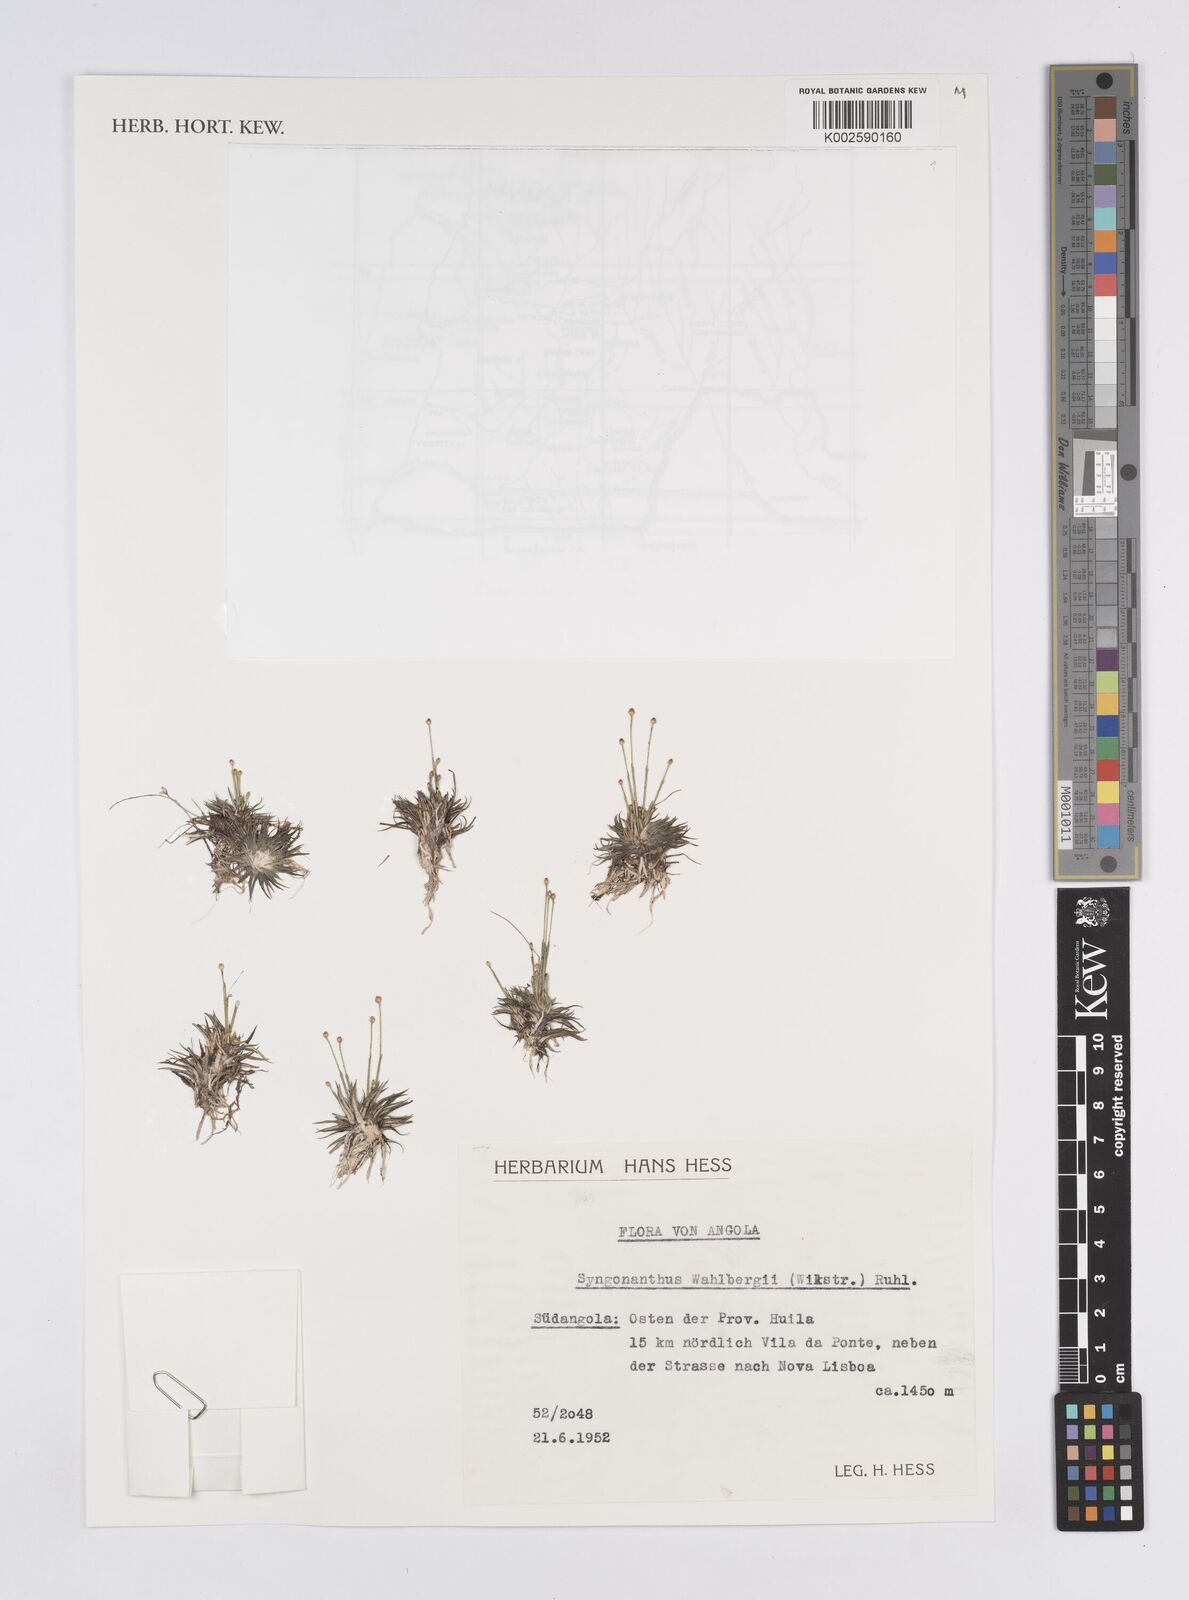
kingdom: Plantae
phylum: Tracheophyta
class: Liliopsida
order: Poales
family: Eriocaulaceae
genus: Syngonanthus
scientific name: Syngonanthus wahlbergii
